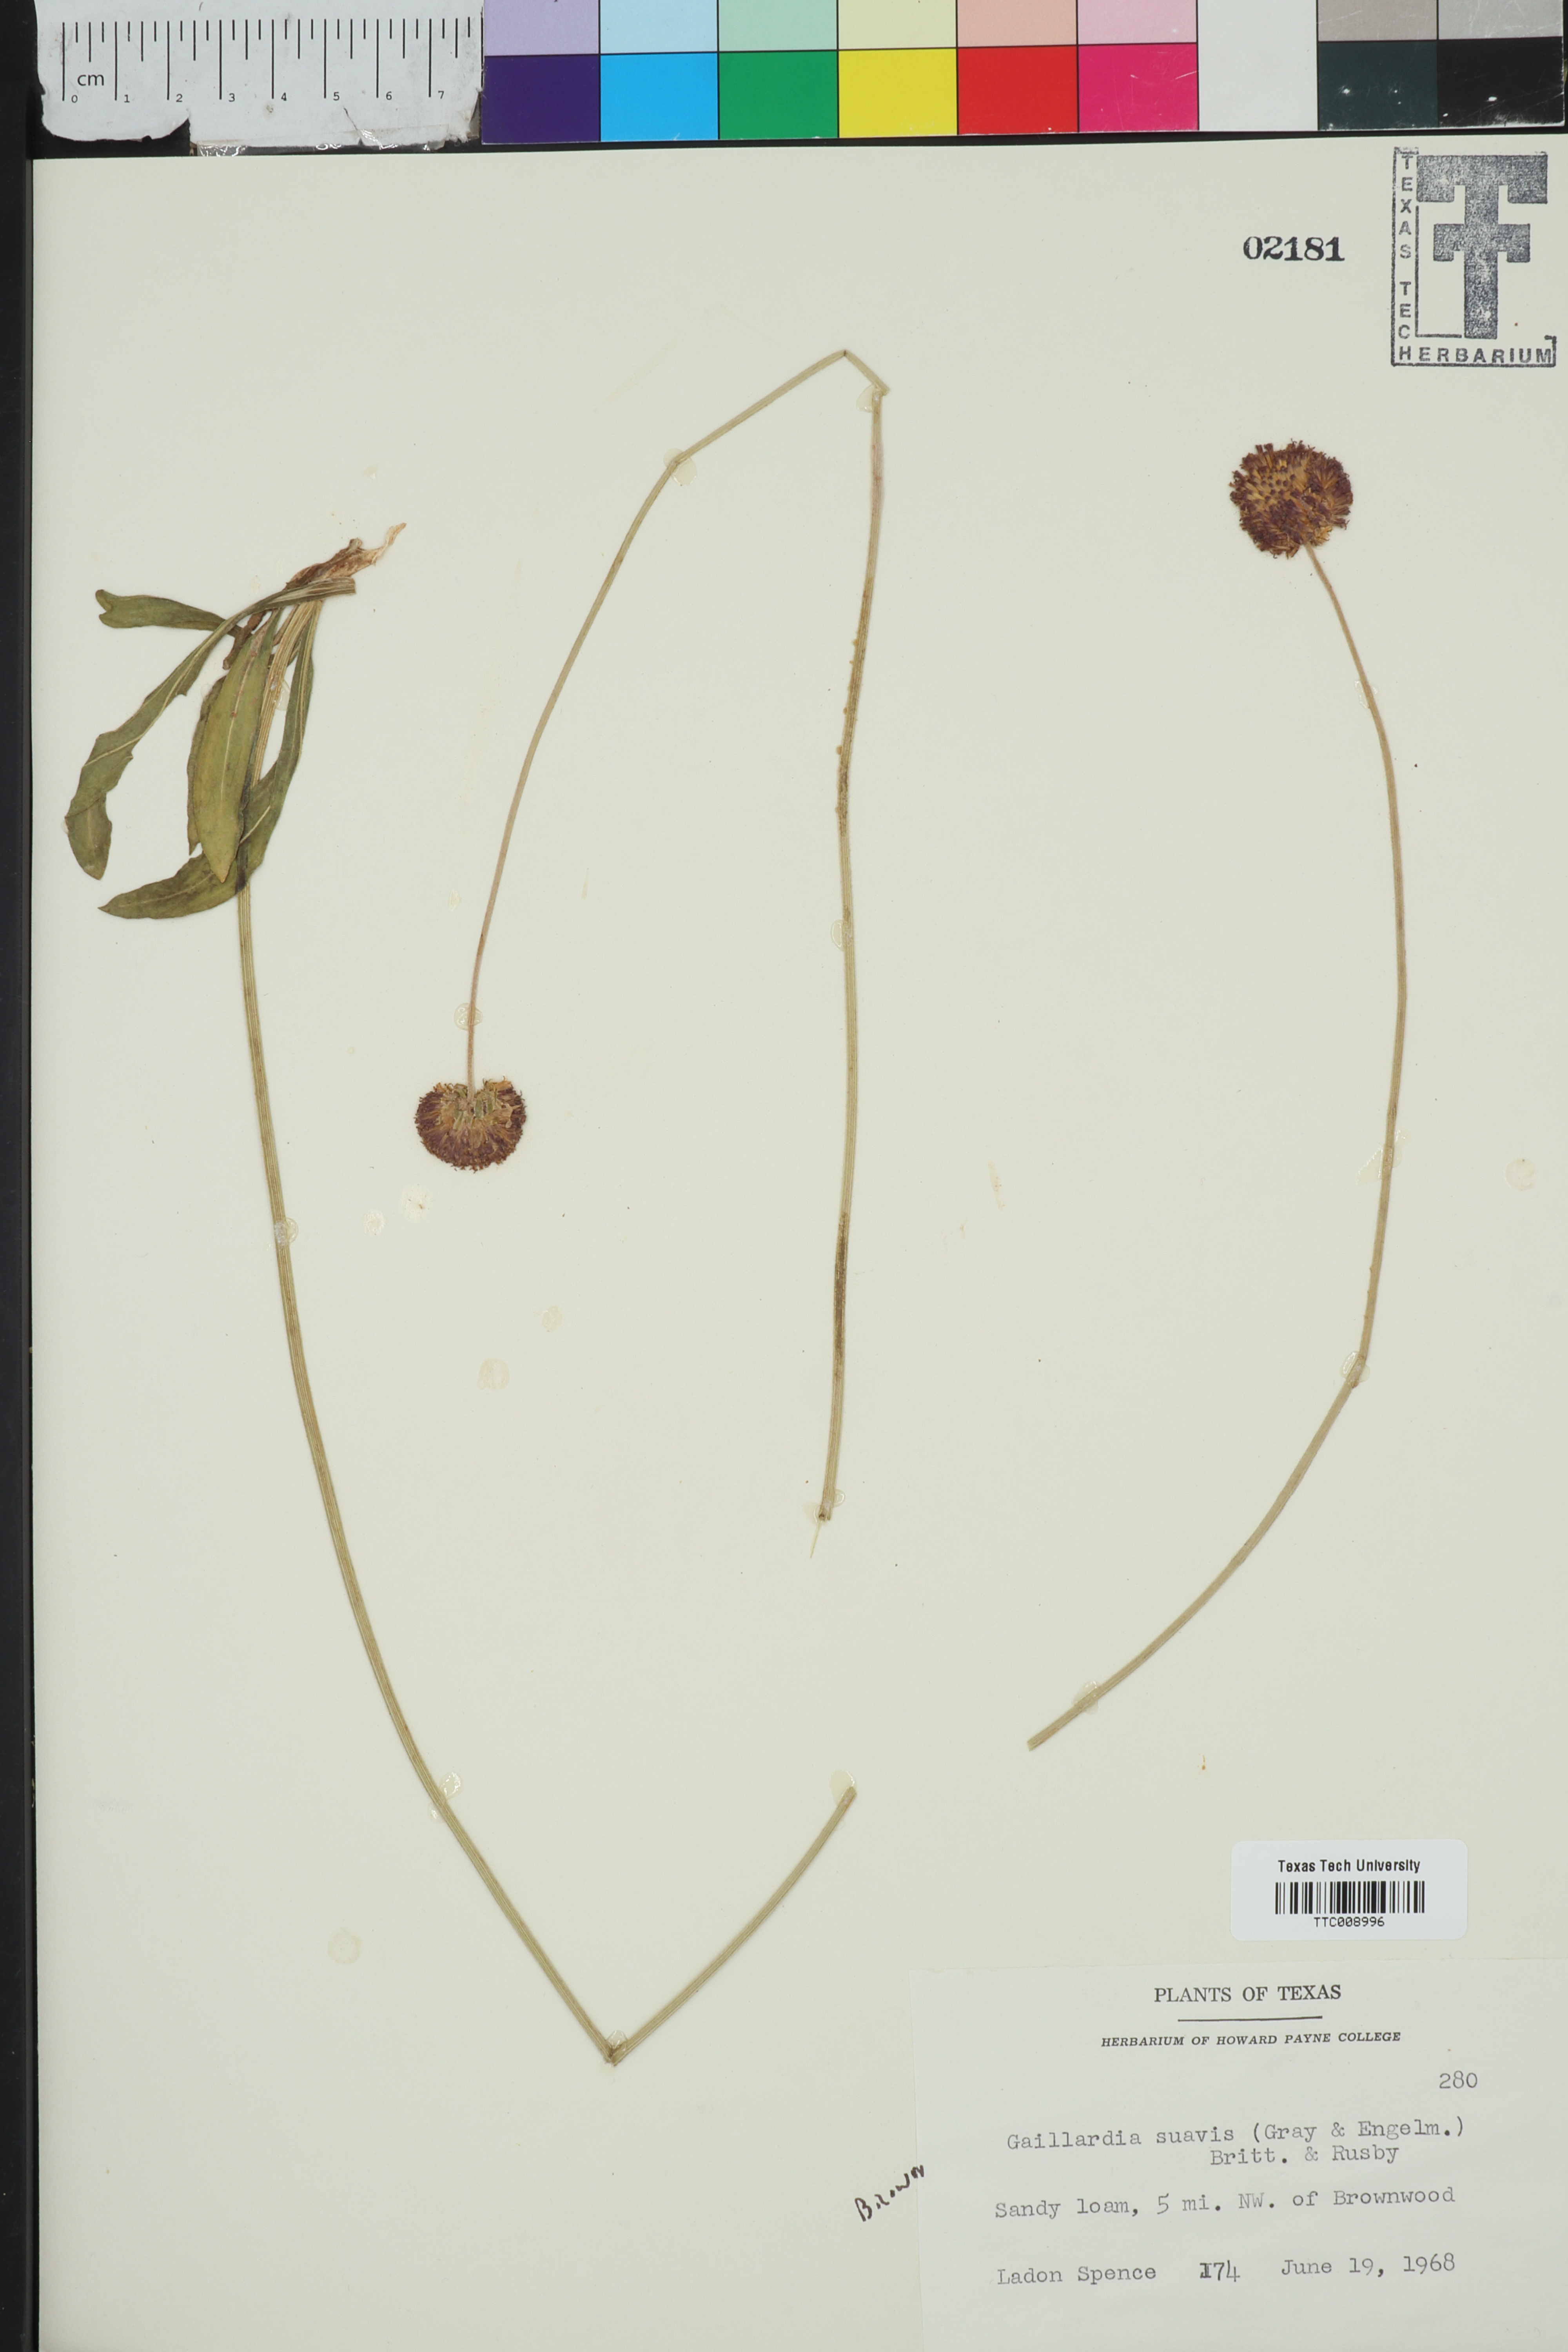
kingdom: Plantae
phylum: Tracheophyta
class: Magnoliopsida
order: Asterales
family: Asteraceae
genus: Gaillardia
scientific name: Gaillardia suavis
